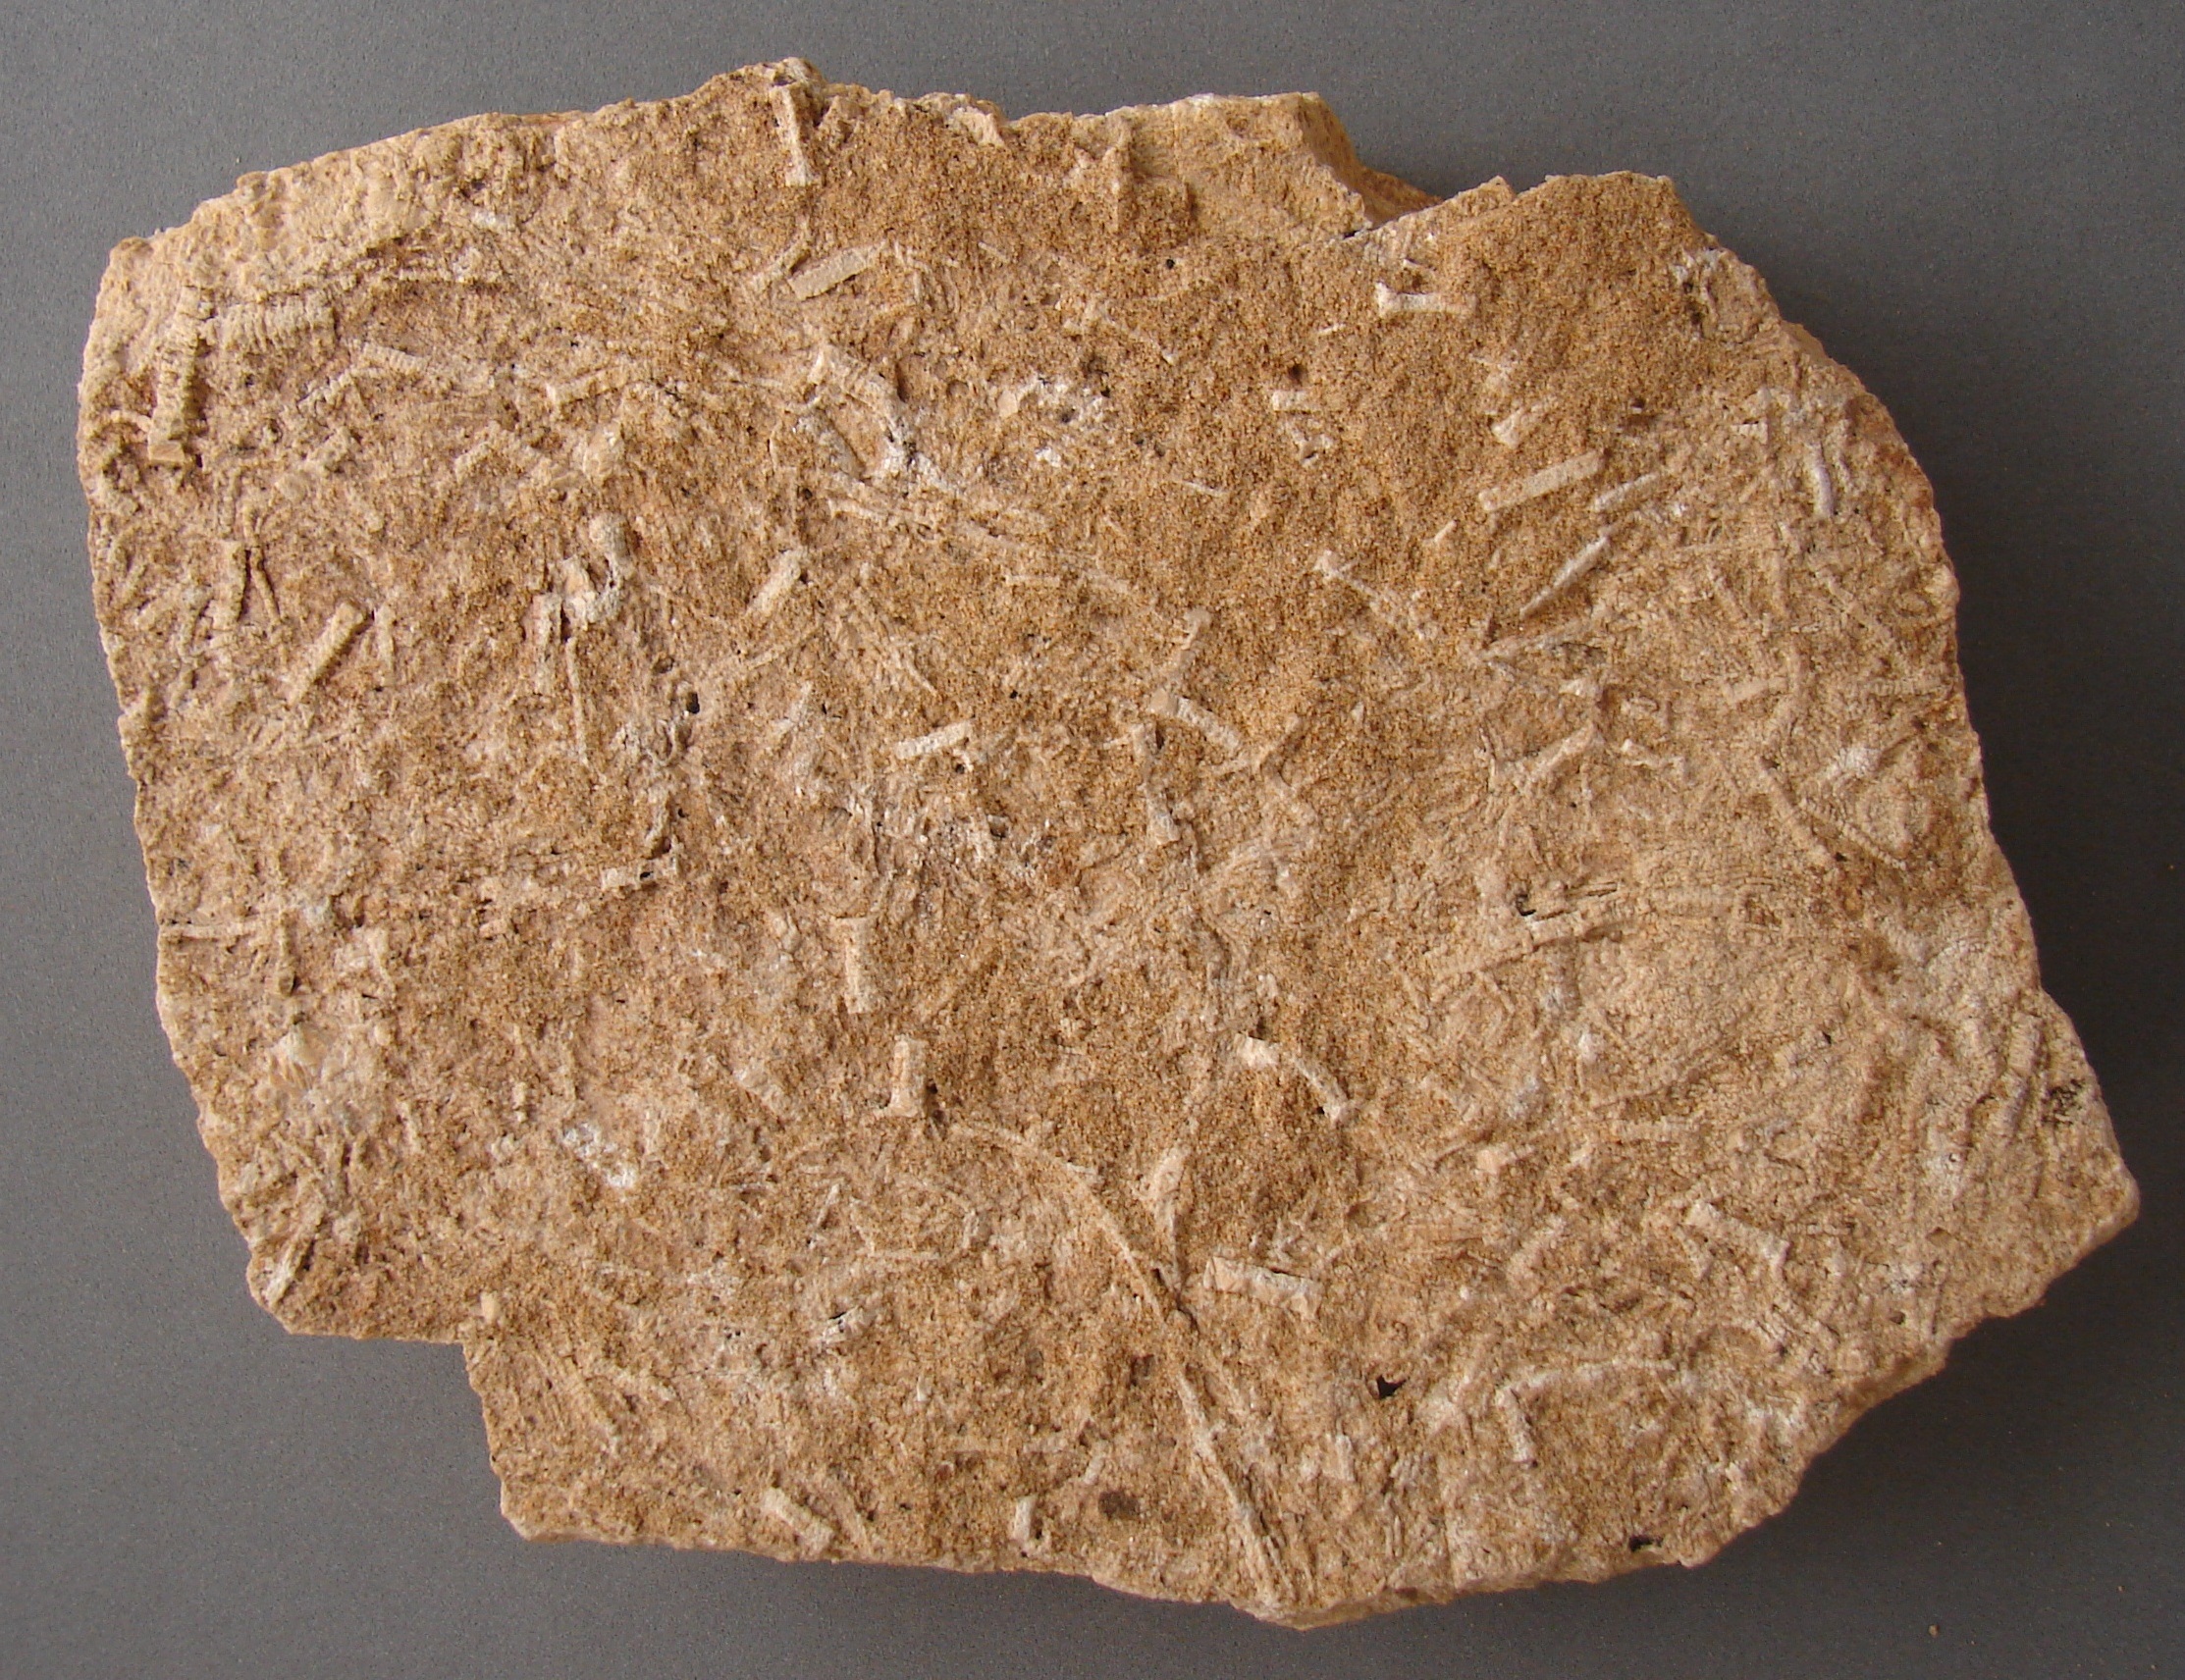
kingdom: Animalia
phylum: Echinodermata
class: Crinoidea
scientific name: Crinoidea
